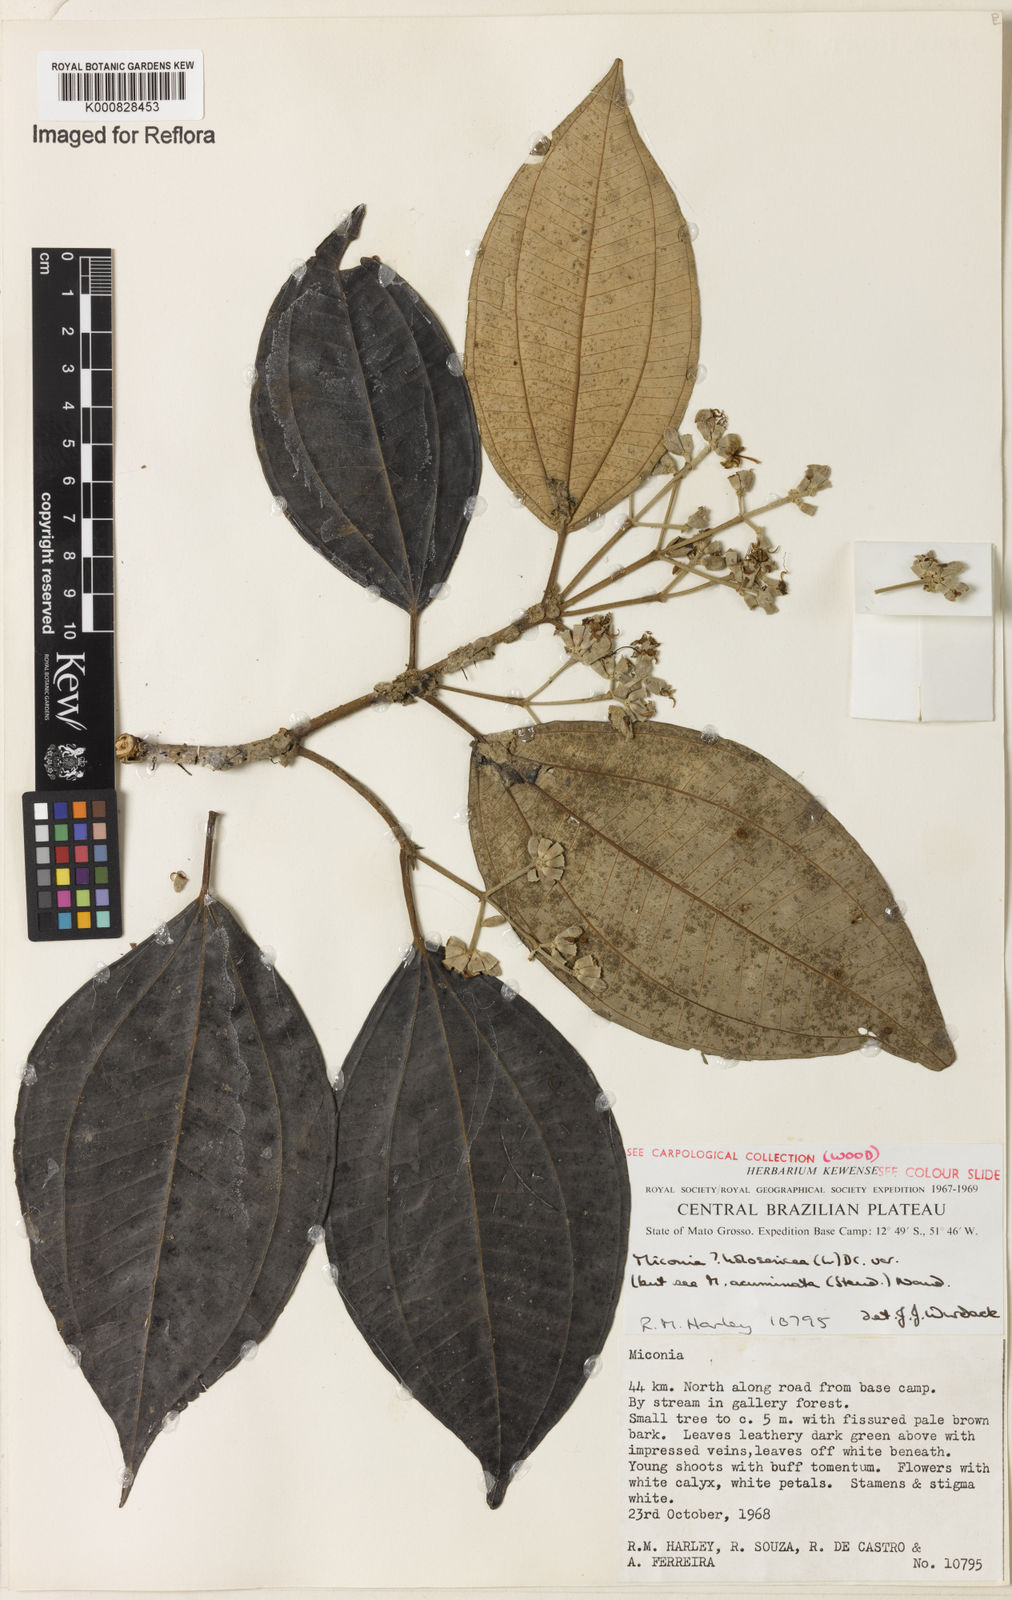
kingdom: Plantae
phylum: Tracheophyta
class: Magnoliopsida
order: Myrtales
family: Melastomataceae
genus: Miconia
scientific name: Miconia holosericea
